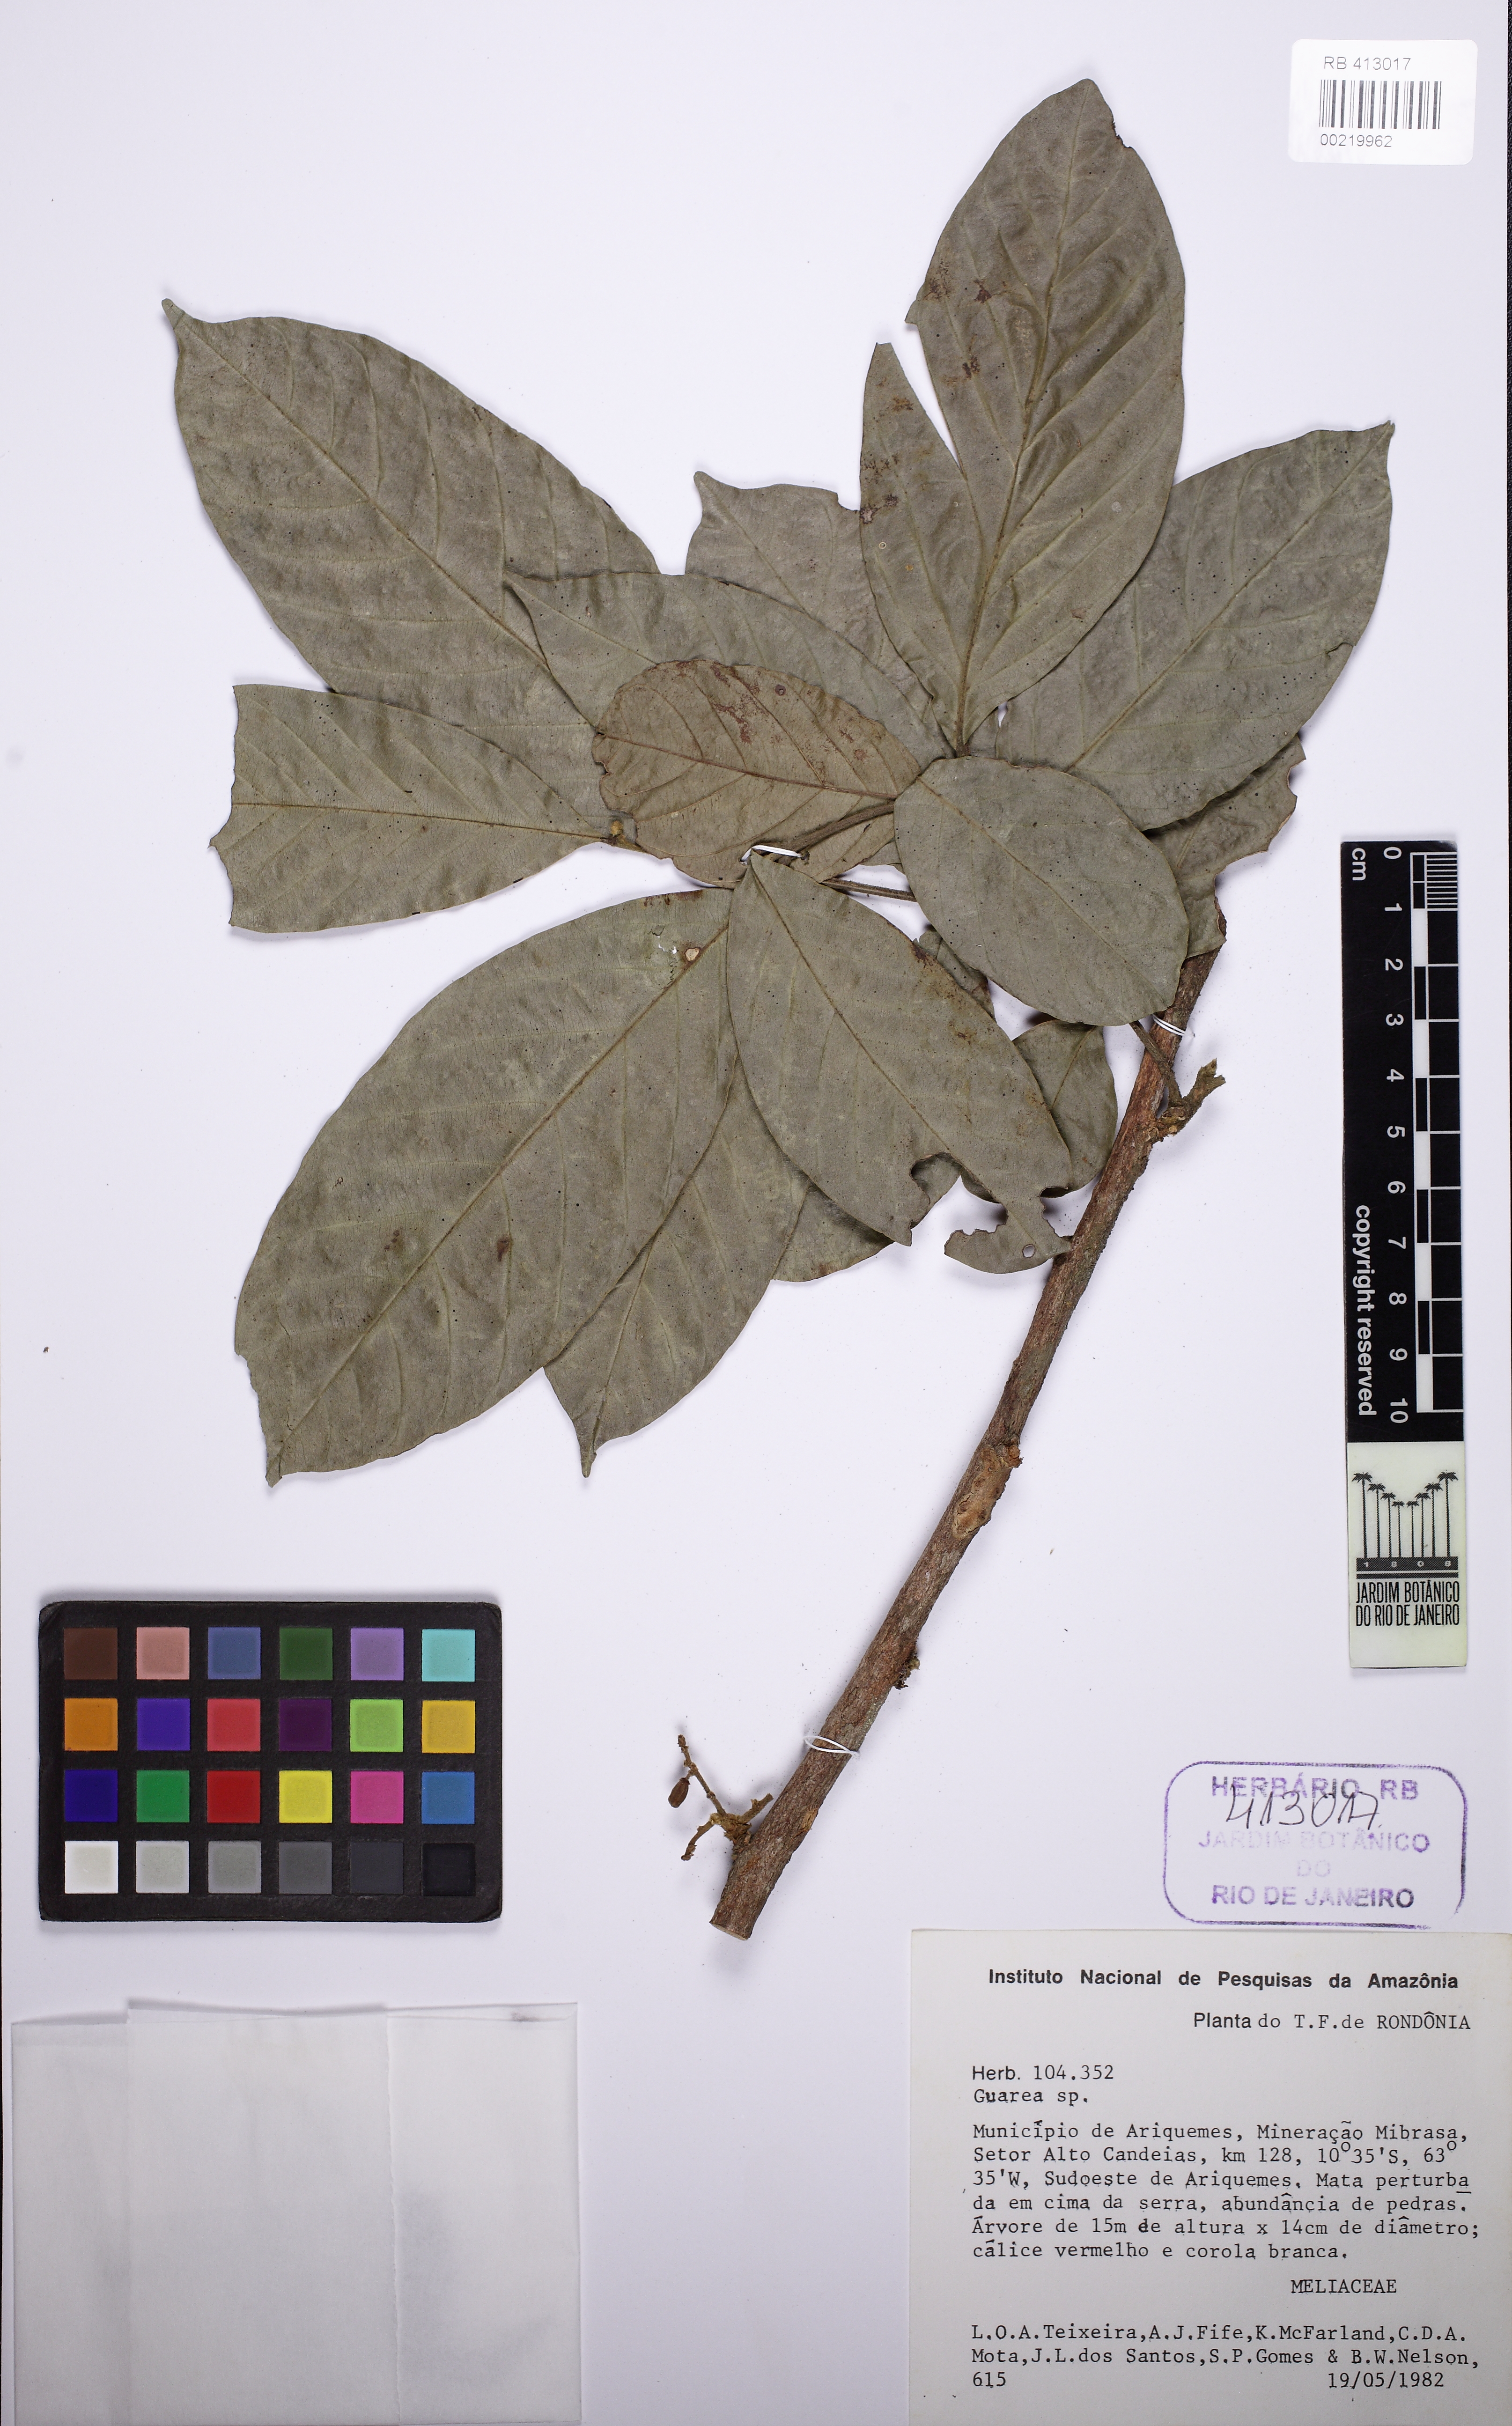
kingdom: Plantae
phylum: Tracheophyta
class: Magnoliopsida
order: Sapindales
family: Meliaceae
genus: Guarea
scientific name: Guarea
